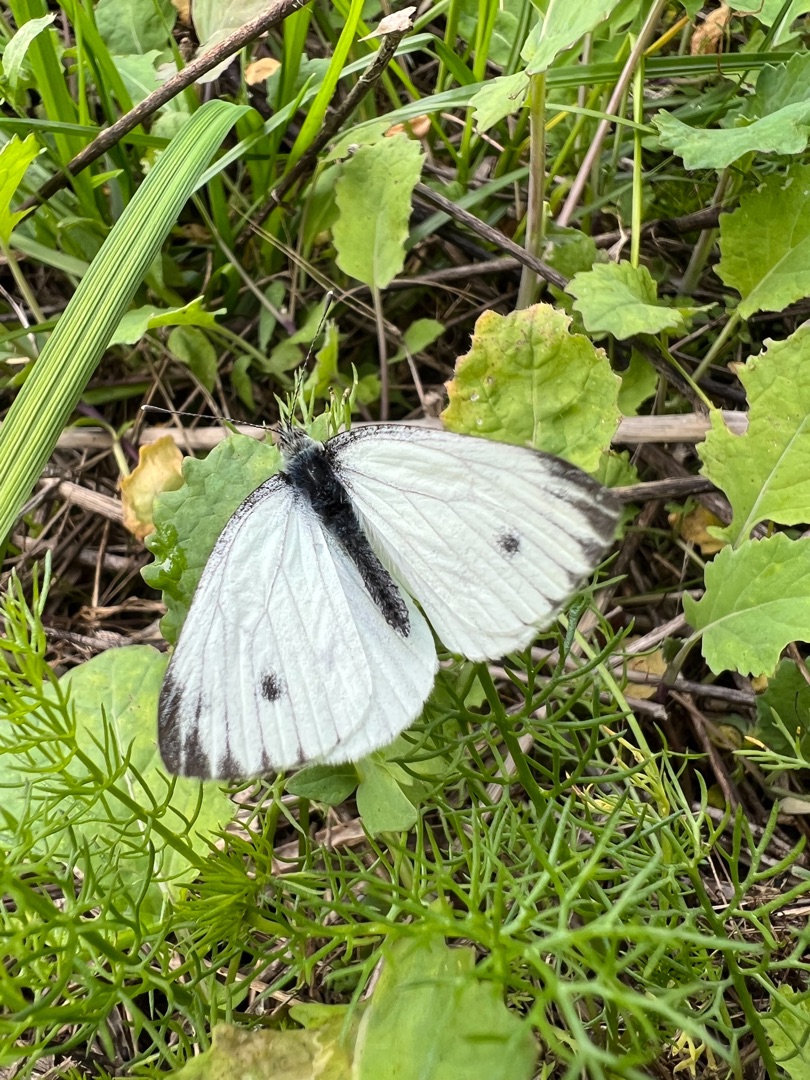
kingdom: Animalia
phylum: Arthropoda
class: Insecta
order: Lepidoptera
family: Pieridae
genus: Pieris
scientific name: Pieris napi
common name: Grønåret kålsommerfugl
